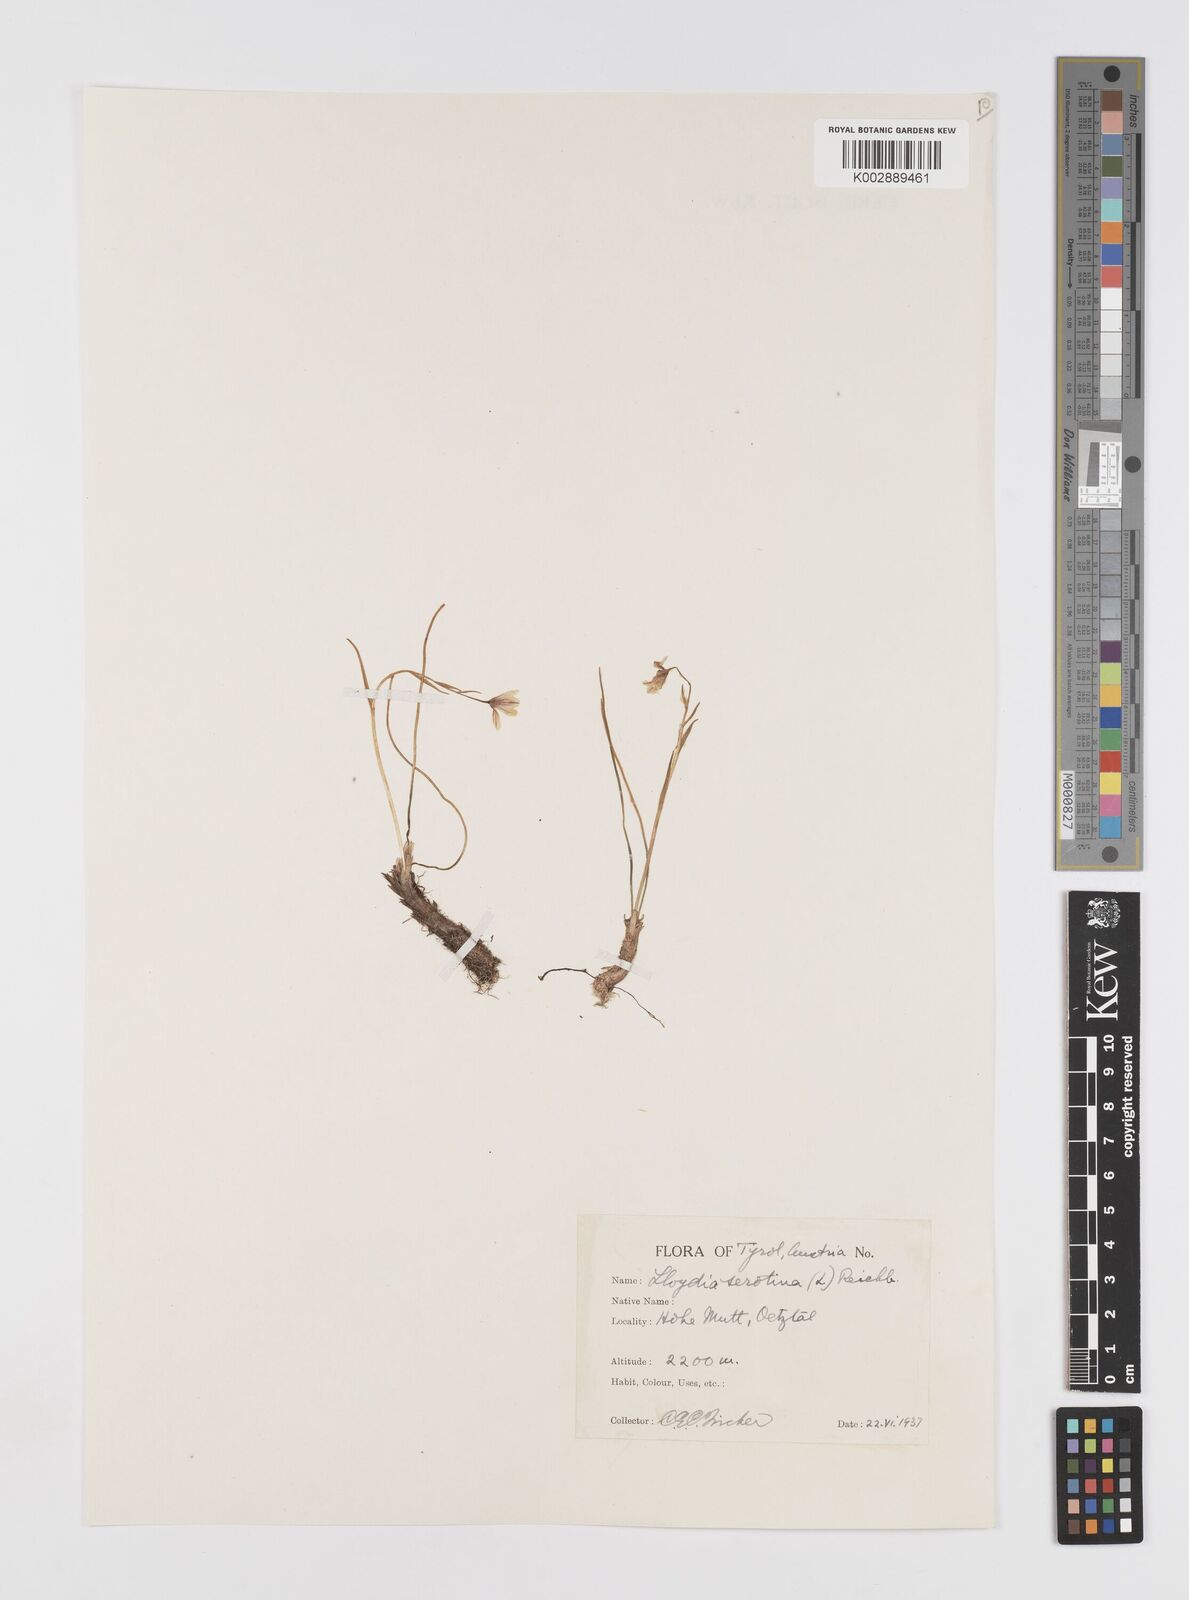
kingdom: Plantae
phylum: Tracheophyta
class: Liliopsida
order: Liliales
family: Liliaceae
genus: Gagea
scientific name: Gagea
